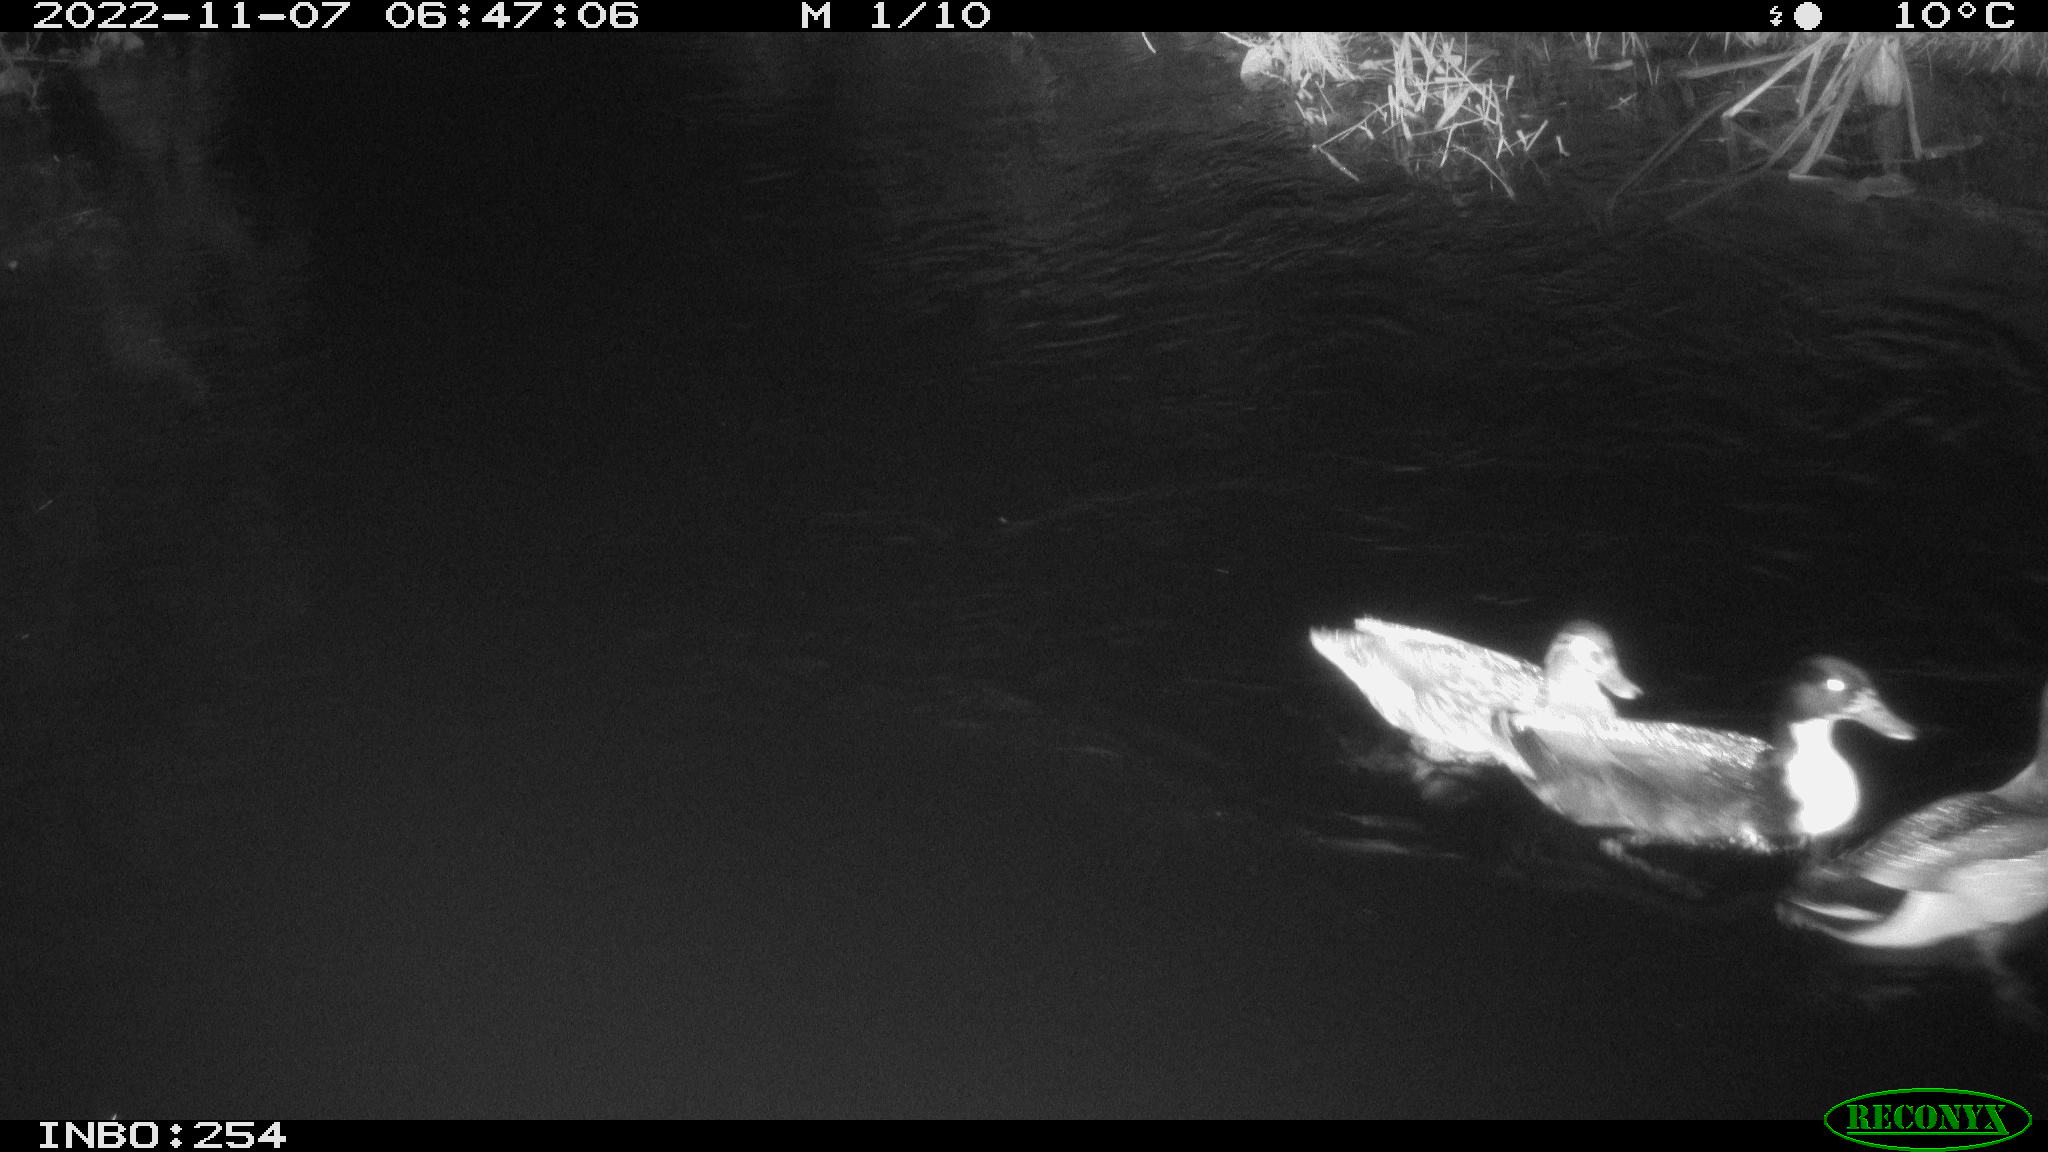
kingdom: Animalia
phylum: Chordata
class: Aves
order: Anseriformes
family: Anatidae
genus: Anas
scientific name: Anas
